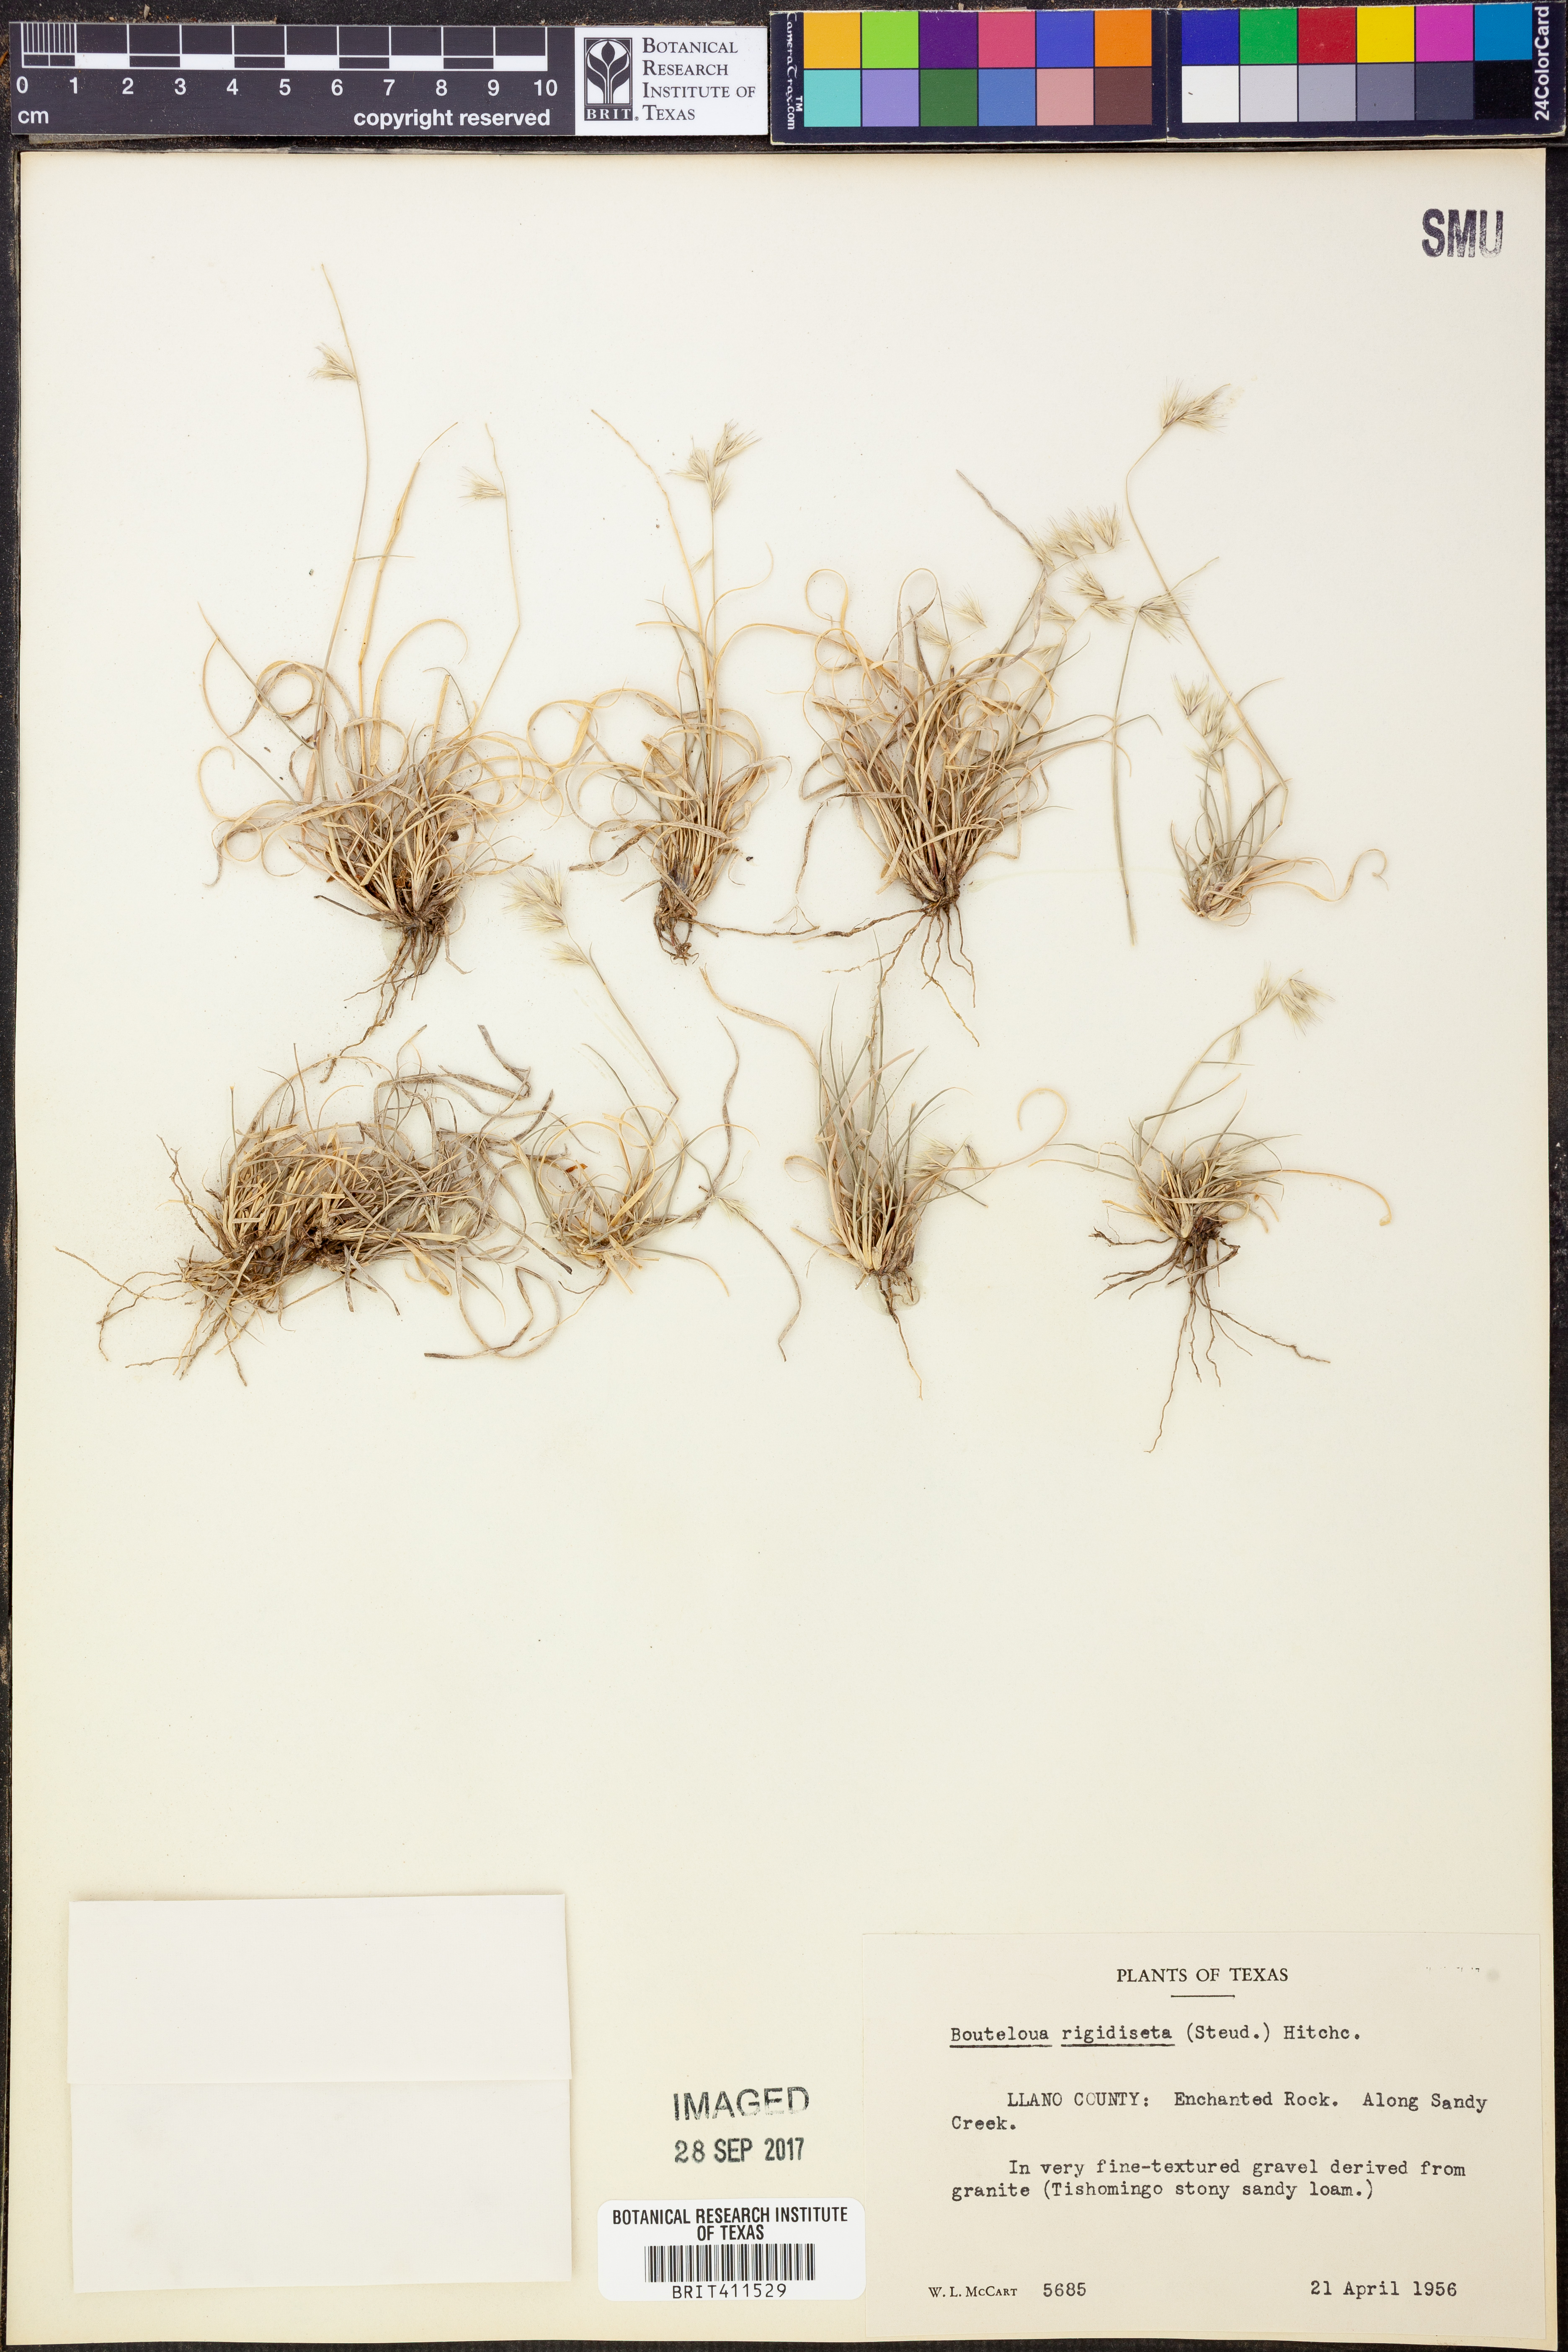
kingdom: Plantae
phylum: Tracheophyta
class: Liliopsida
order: Poales
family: Poaceae
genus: Bouteloua
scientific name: Bouteloua rigidiseta
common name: Texas grama
